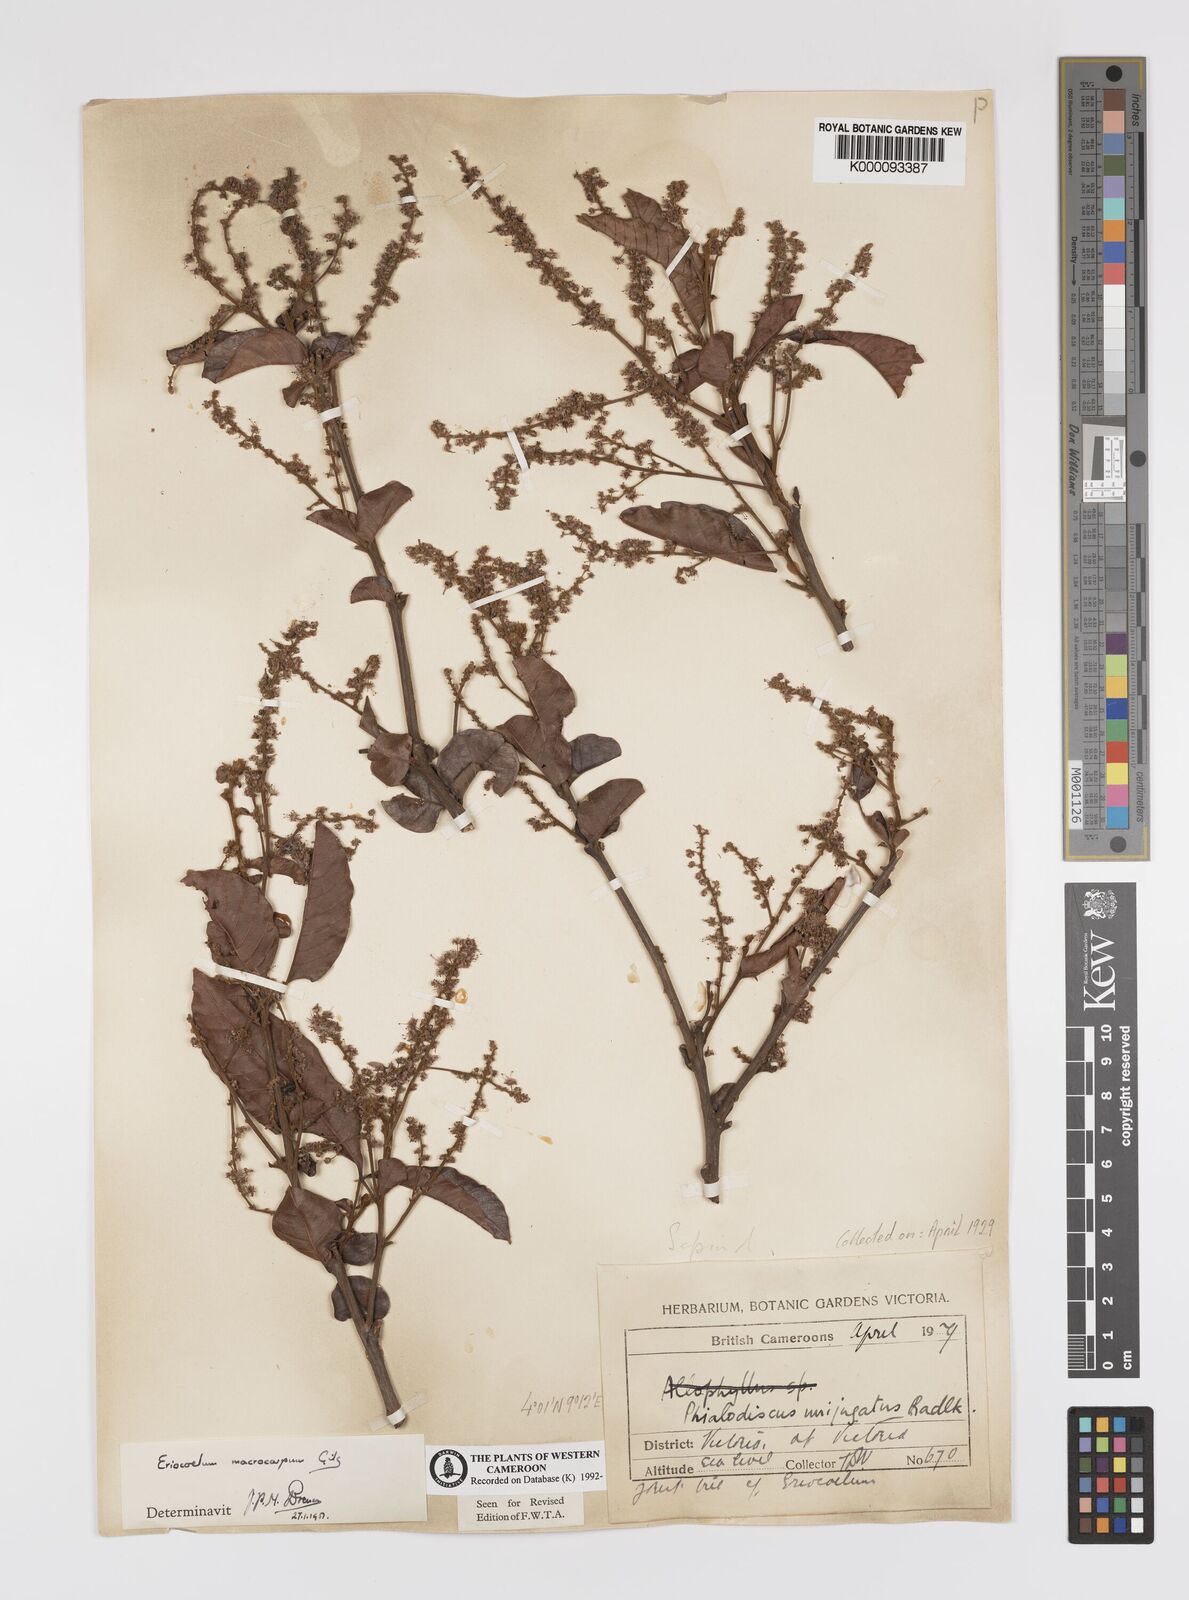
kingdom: Plantae
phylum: Tracheophyta
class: Magnoliopsida
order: Sapindales
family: Sapindaceae
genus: Eriocoelum
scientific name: Eriocoelum
